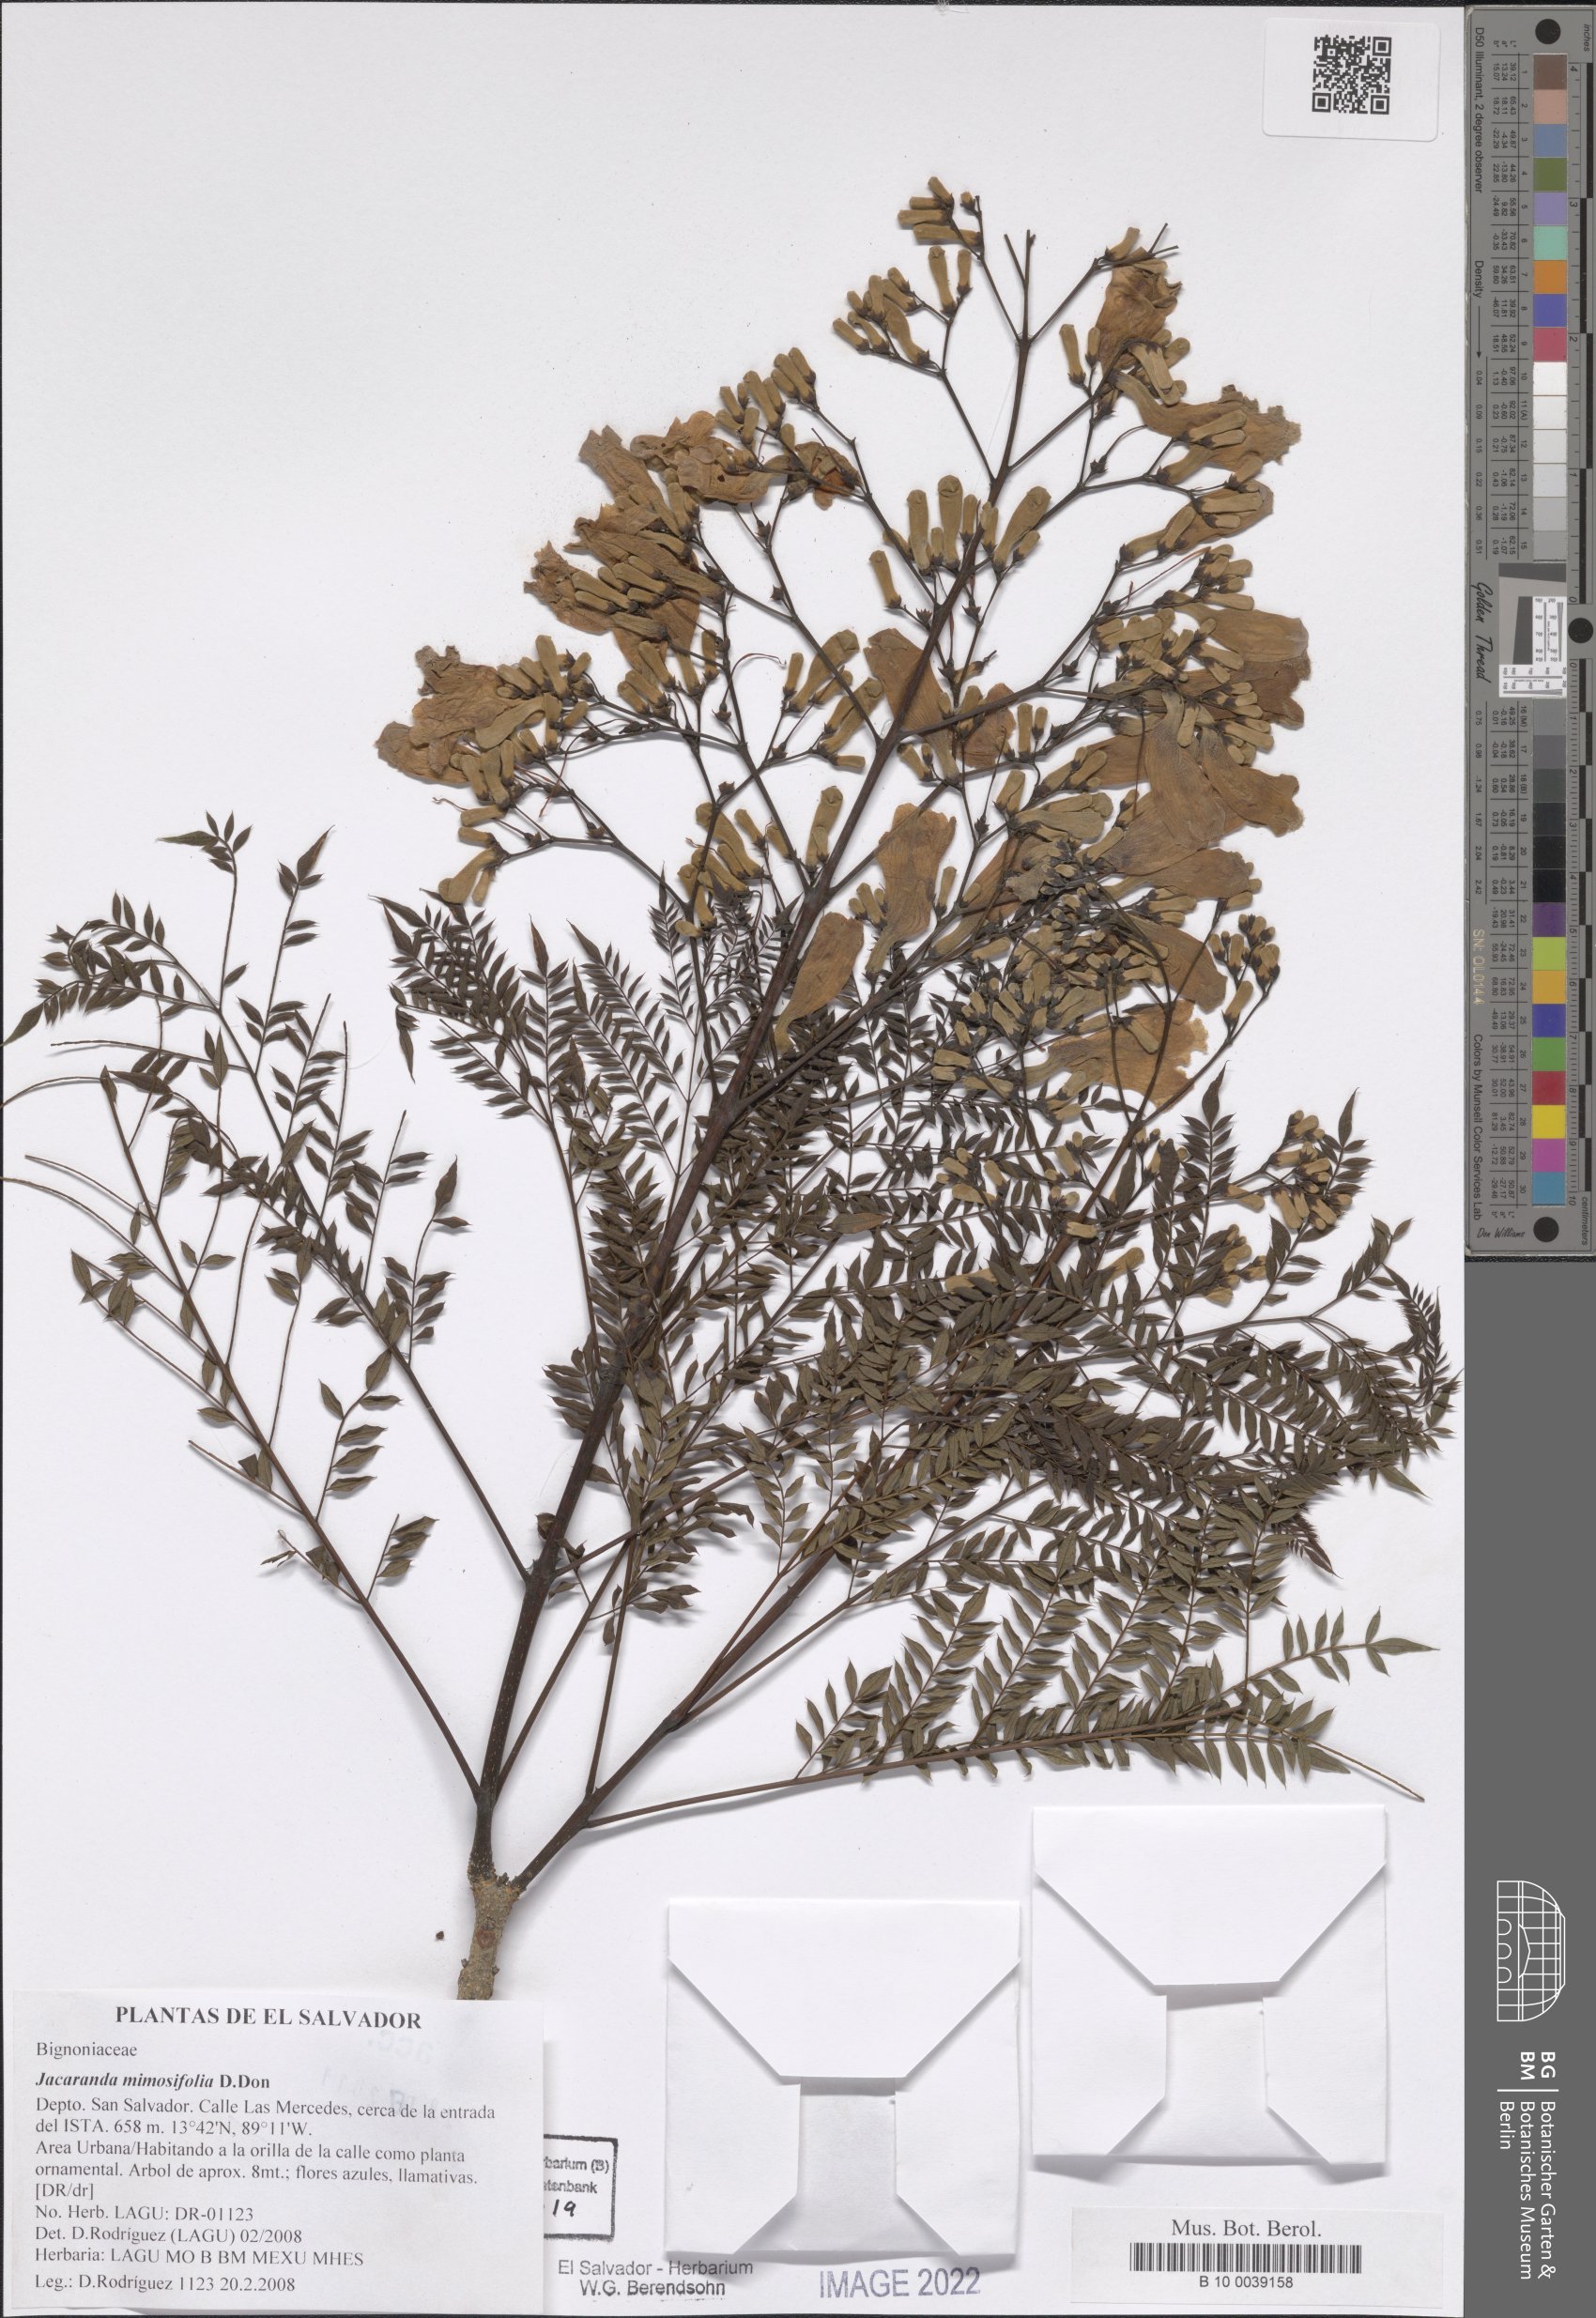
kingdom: Plantae
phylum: Tracheophyta
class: Magnoliopsida
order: Lamiales
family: Bignoniaceae
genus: Jacaranda
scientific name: Jacaranda mimosifolia
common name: Black poui
